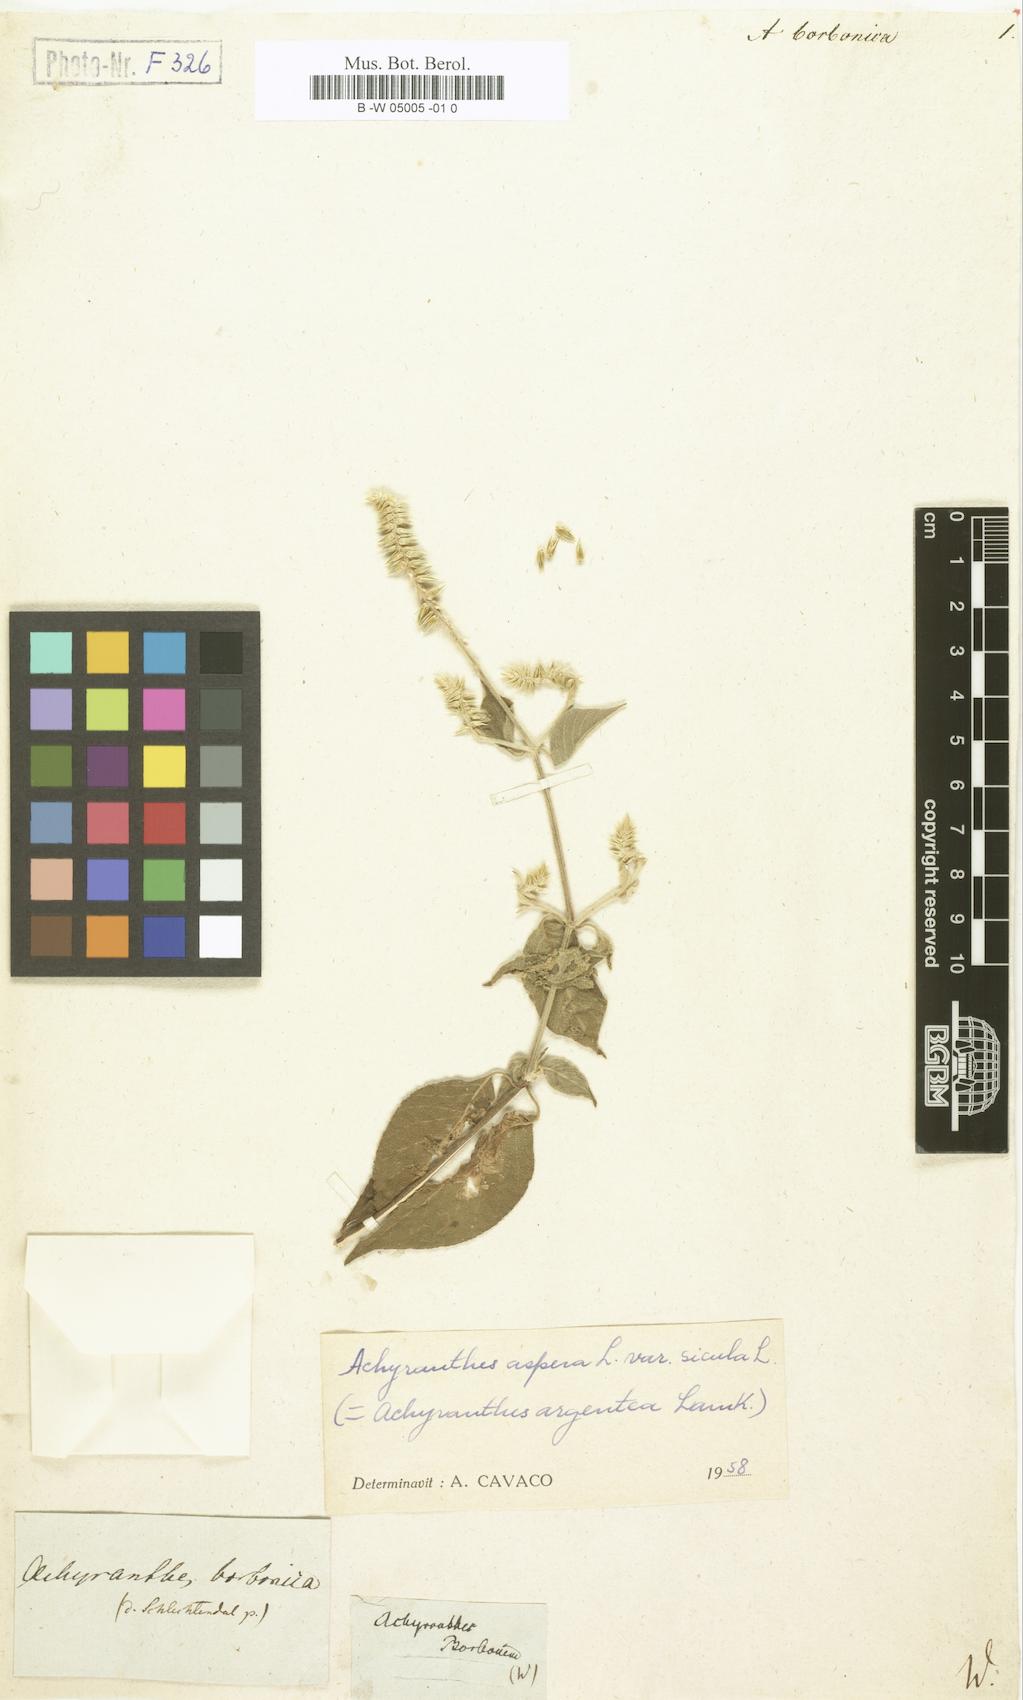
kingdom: Plantae
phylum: Tracheophyta
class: Magnoliopsida
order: Caryophyllales
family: Amaranthaceae
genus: Achyranthes
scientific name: Achyranthes aspera
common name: Devil's horsewhip
